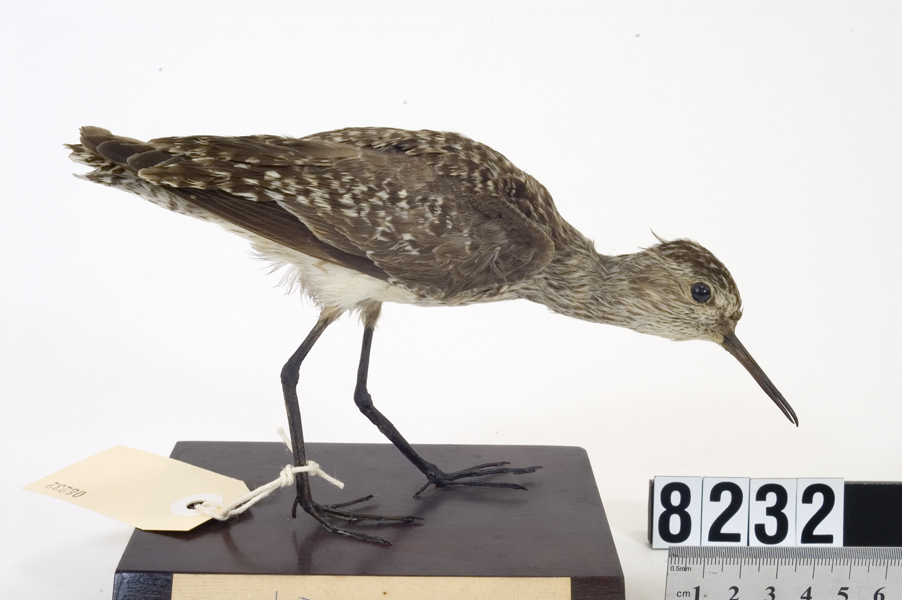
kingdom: Animalia
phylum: Chordata
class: Aves
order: Charadriiformes
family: Scolopacidae
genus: Tringa
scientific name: Tringa glareola
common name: Wood sandpiper
